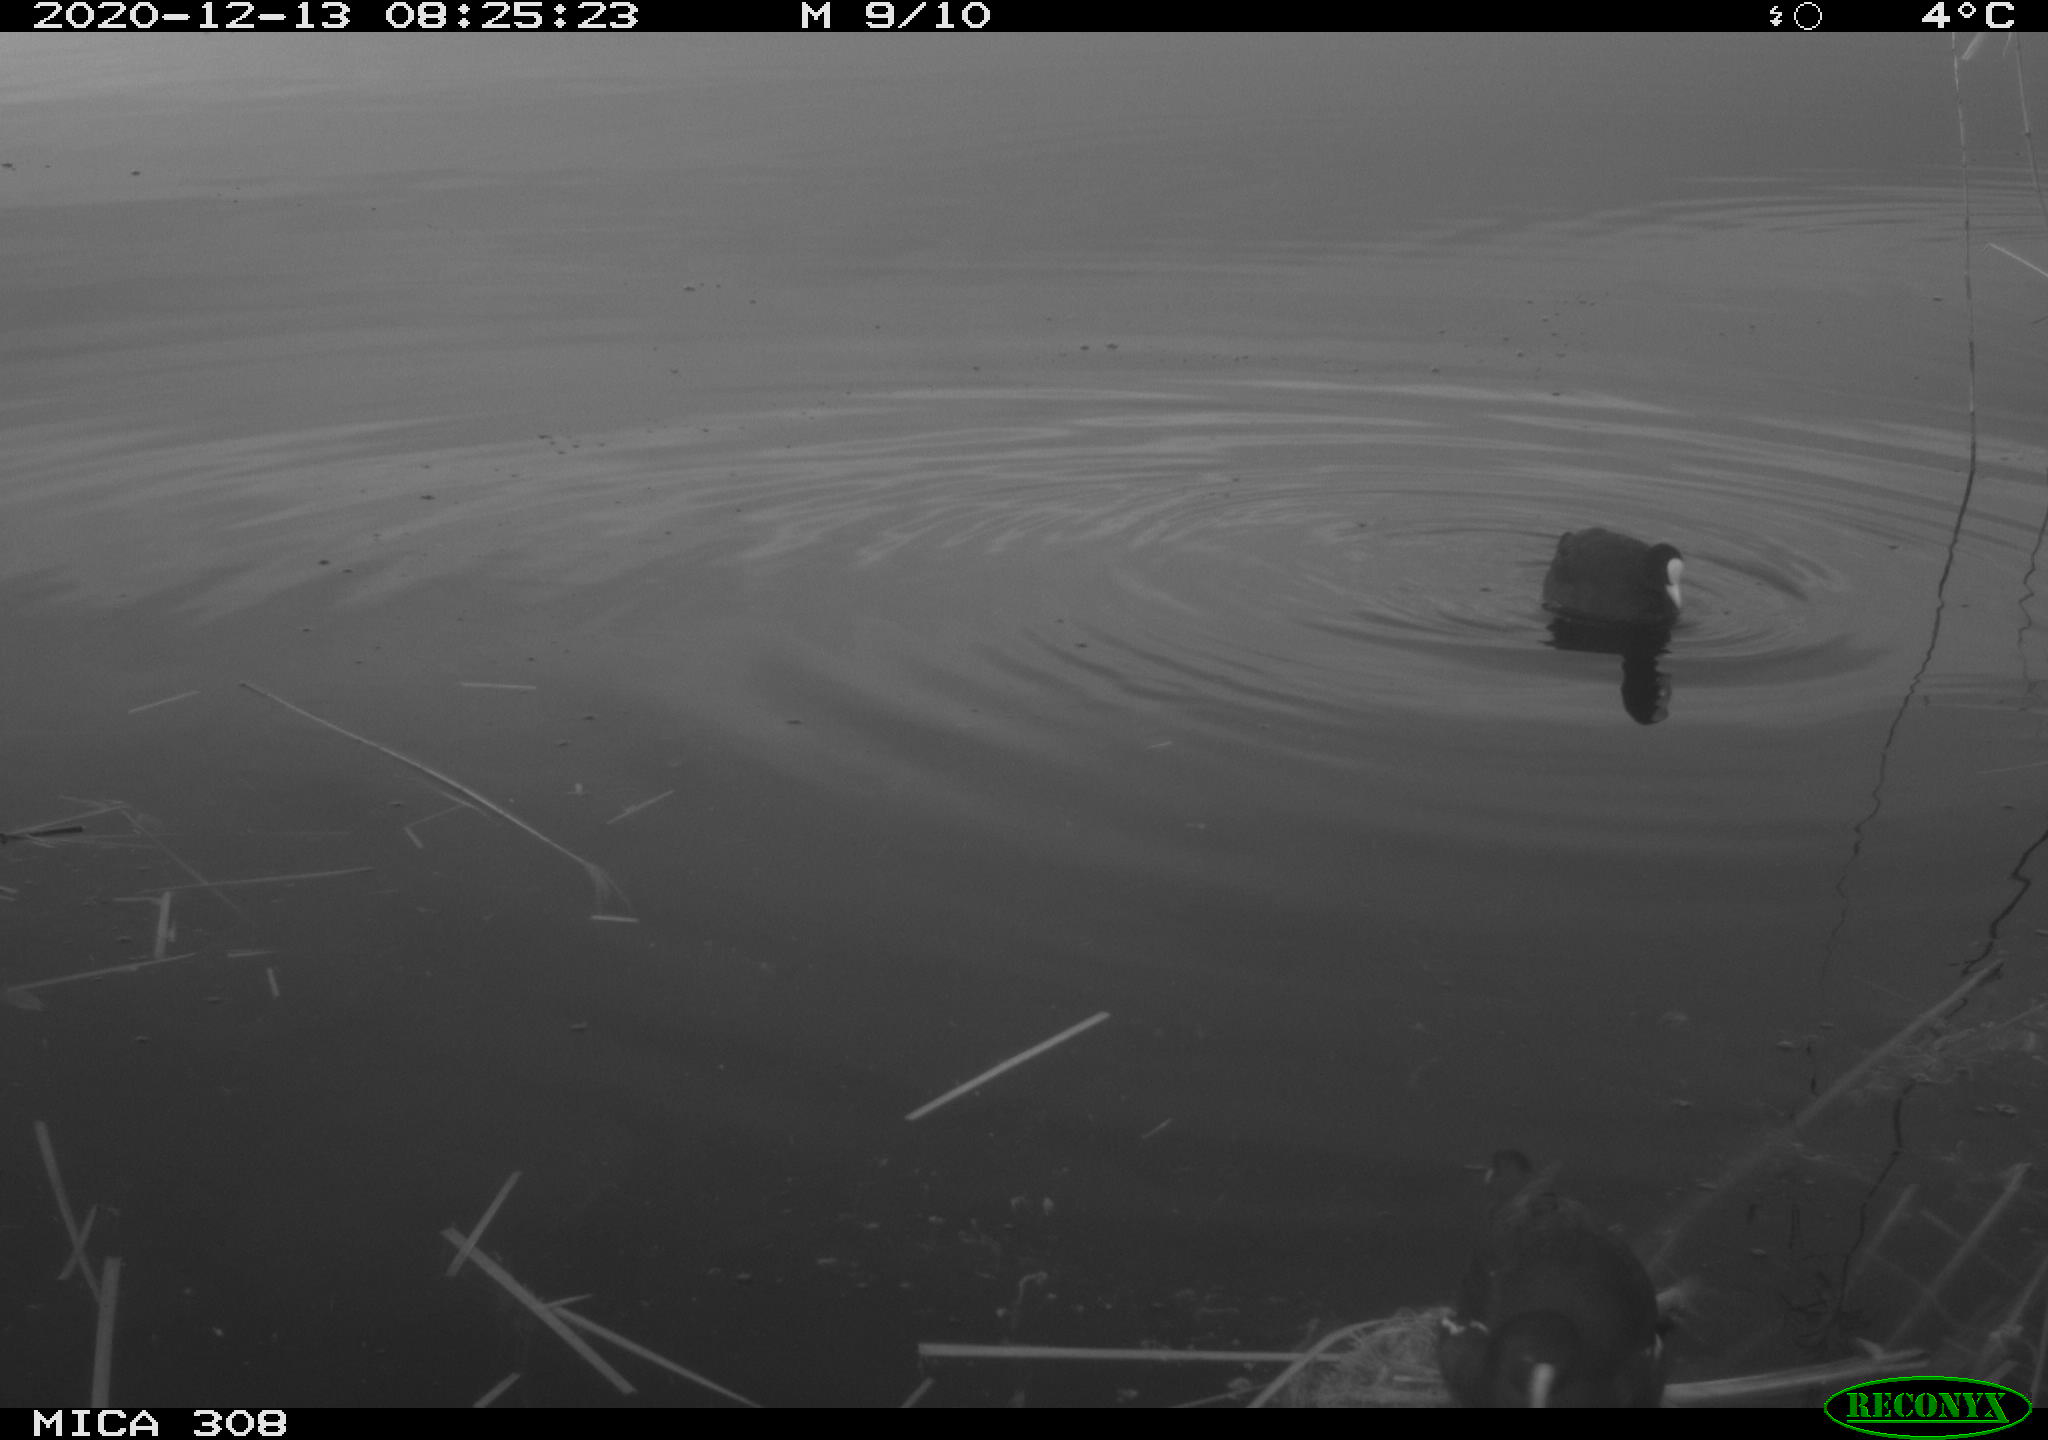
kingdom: Animalia
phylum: Chordata
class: Aves
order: Gruiformes
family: Rallidae
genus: Gallinula
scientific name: Gallinula chloropus
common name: Common moorhen
